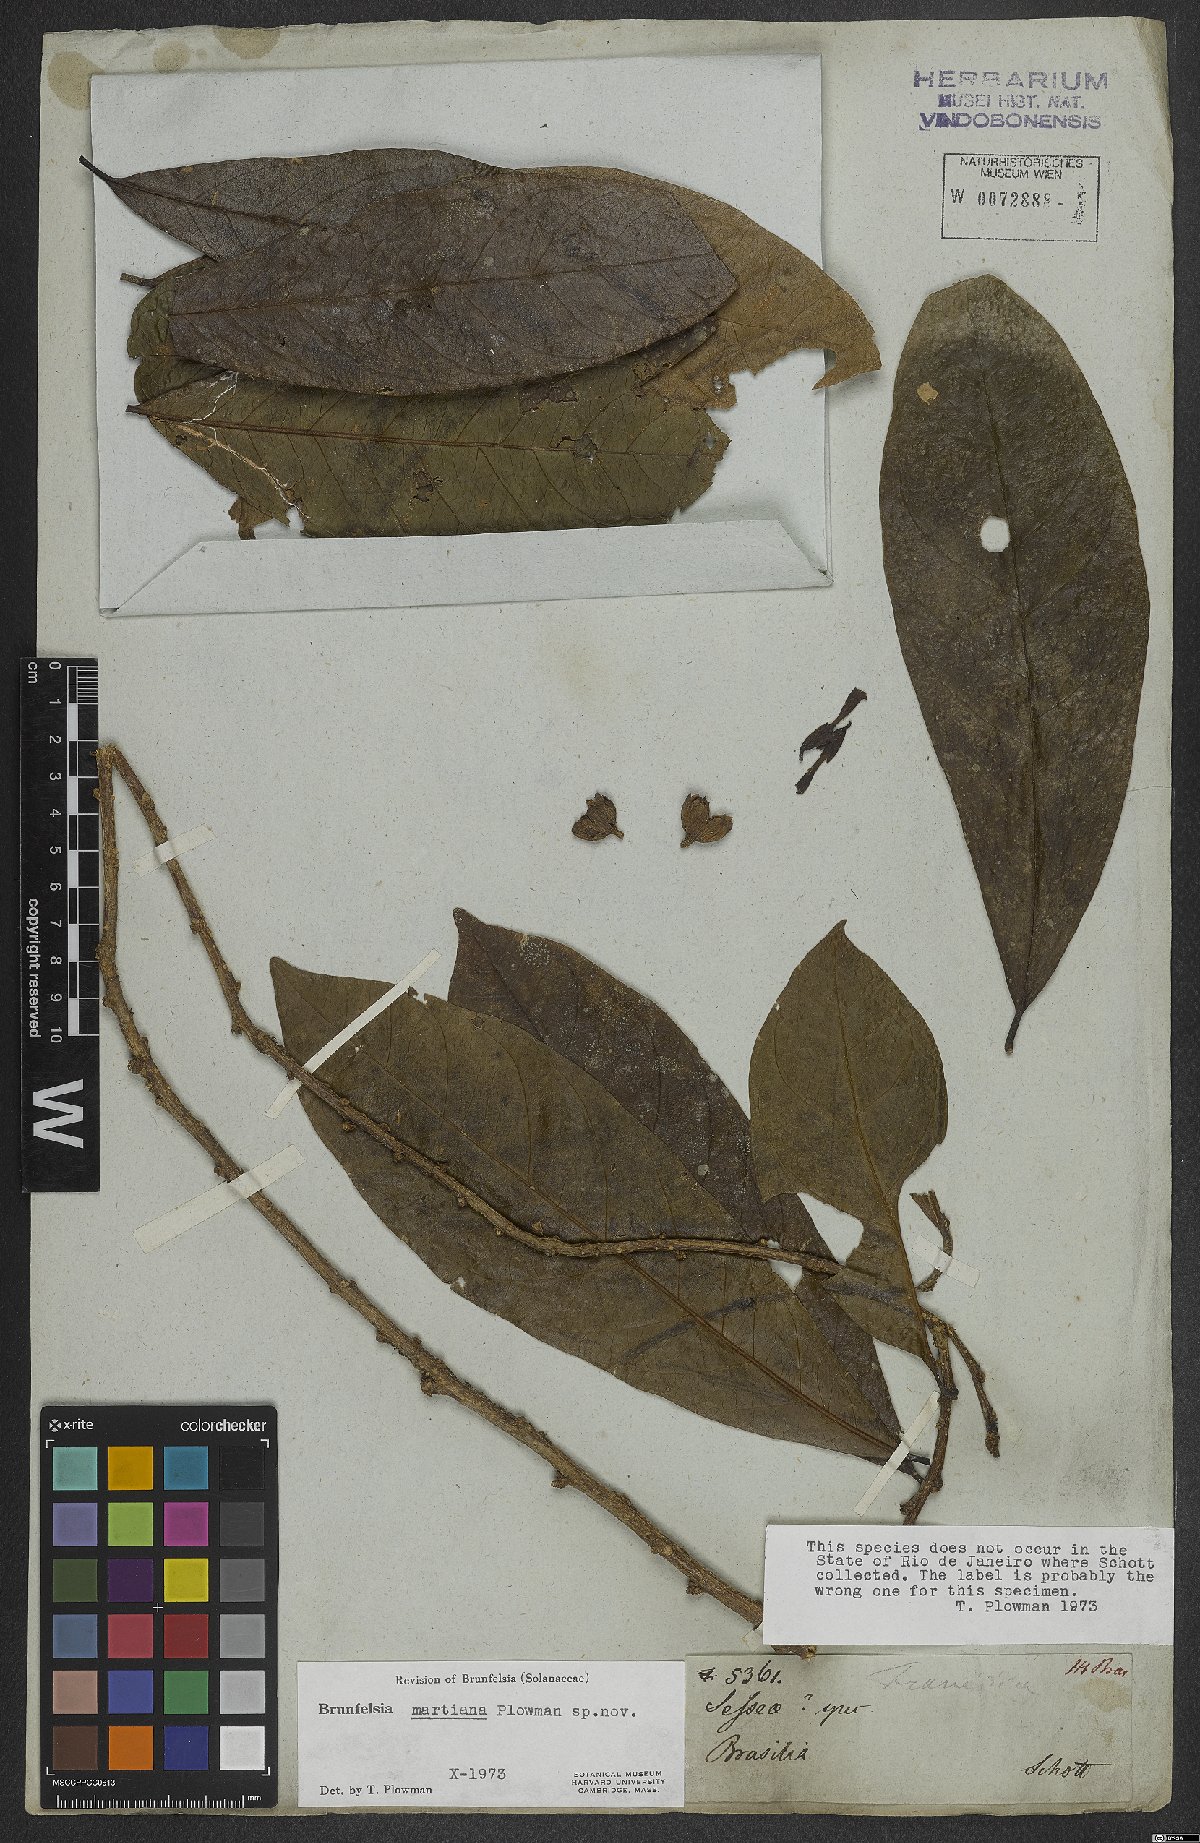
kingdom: Plantae
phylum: Tracheophyta
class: Magnoliopsida
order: Solanales
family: Solanaceae
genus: Brunfelsia
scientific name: Brunfelsia martiana
